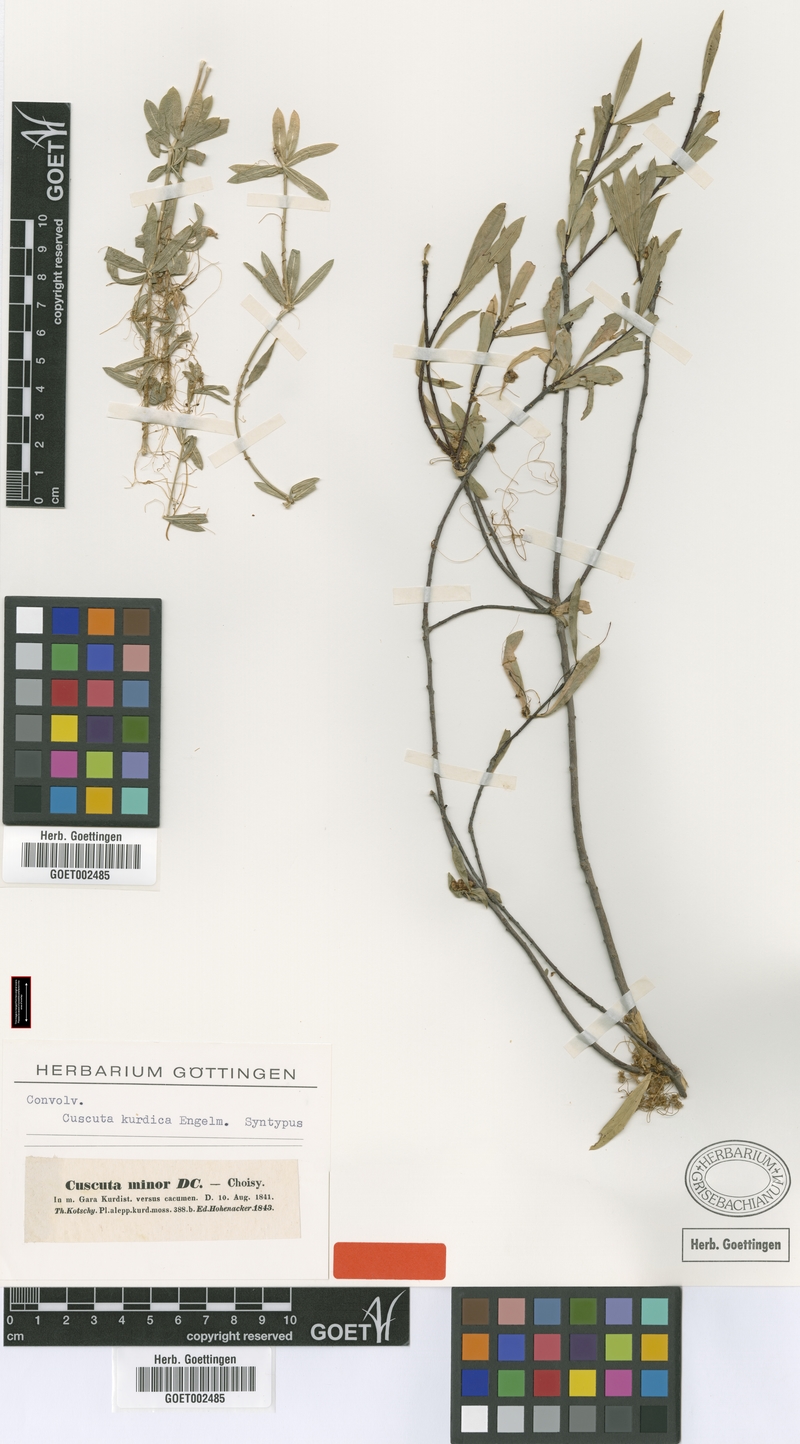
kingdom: Plantae
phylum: Tracheophyta
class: Magnoliopsida
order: Solanales
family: Convolvulaceae
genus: Cuscuta
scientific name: Cuscuta kurdica
